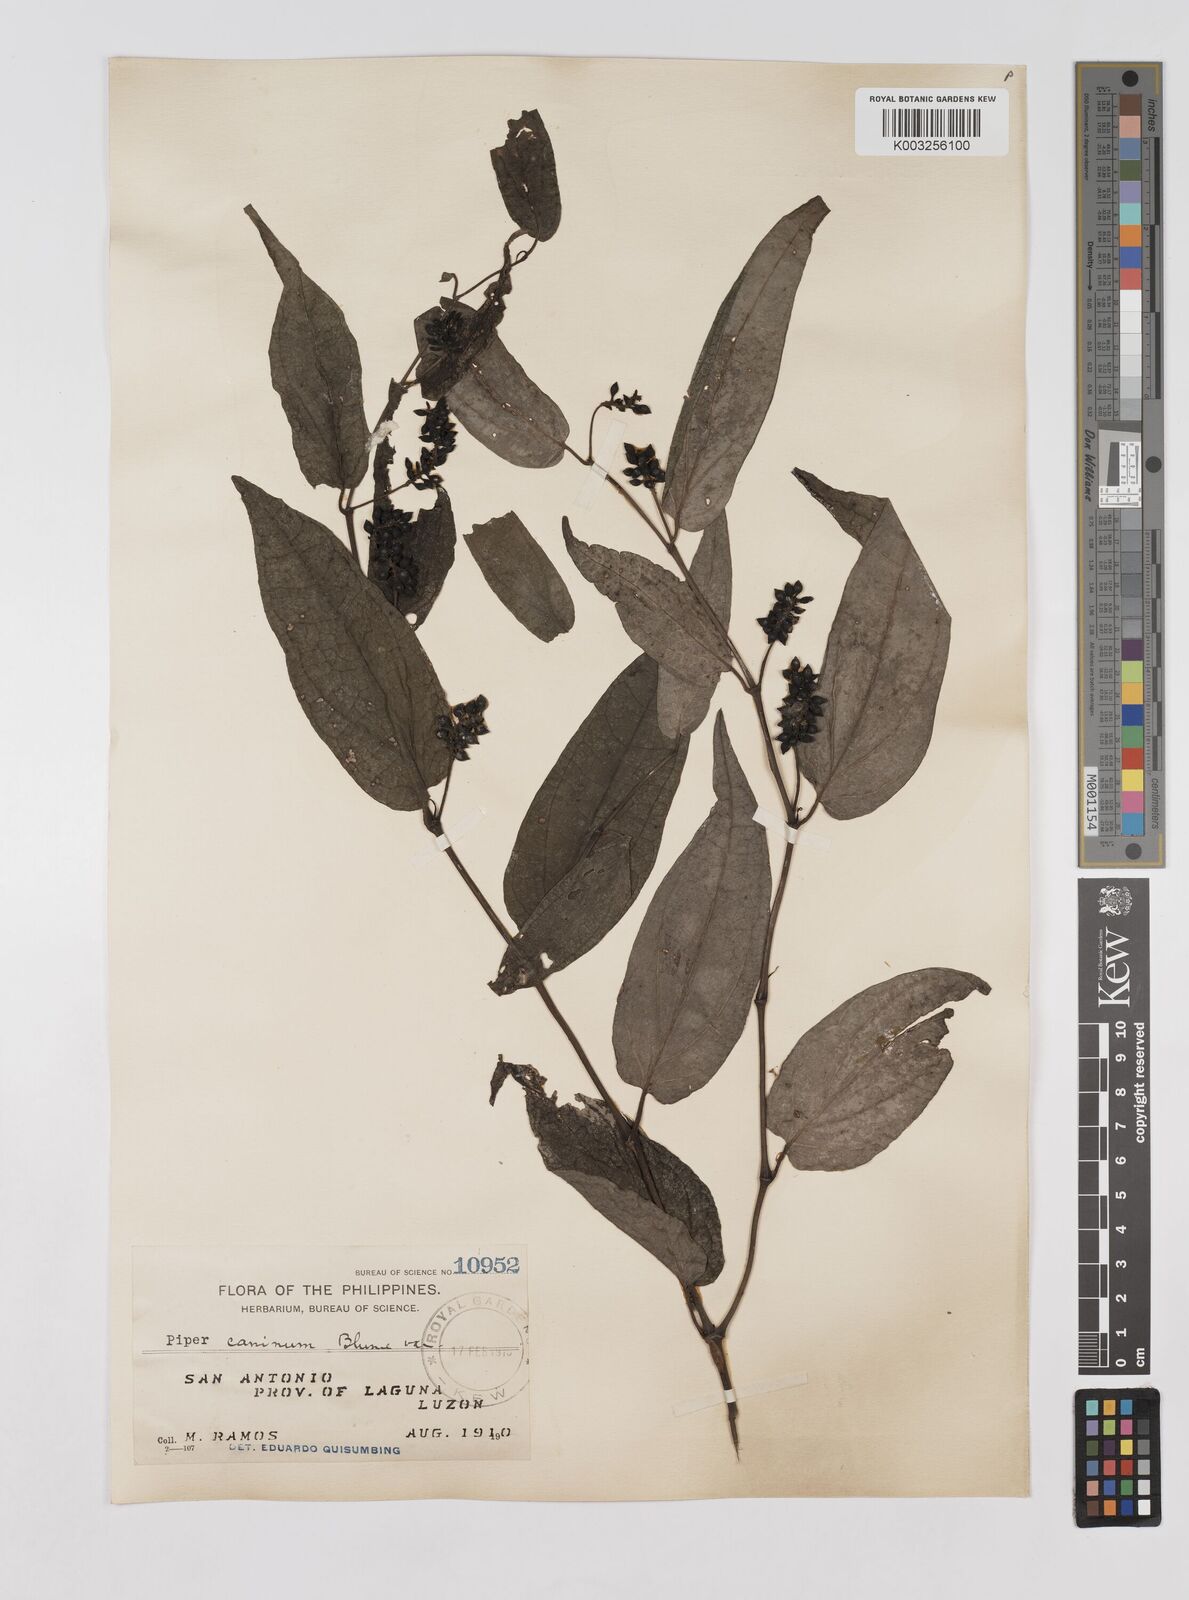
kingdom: Plantae
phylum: Tracheophyta
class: Magnoliopsida
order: Piperales
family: Piperaceae
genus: Piper
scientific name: Piper lanatum
